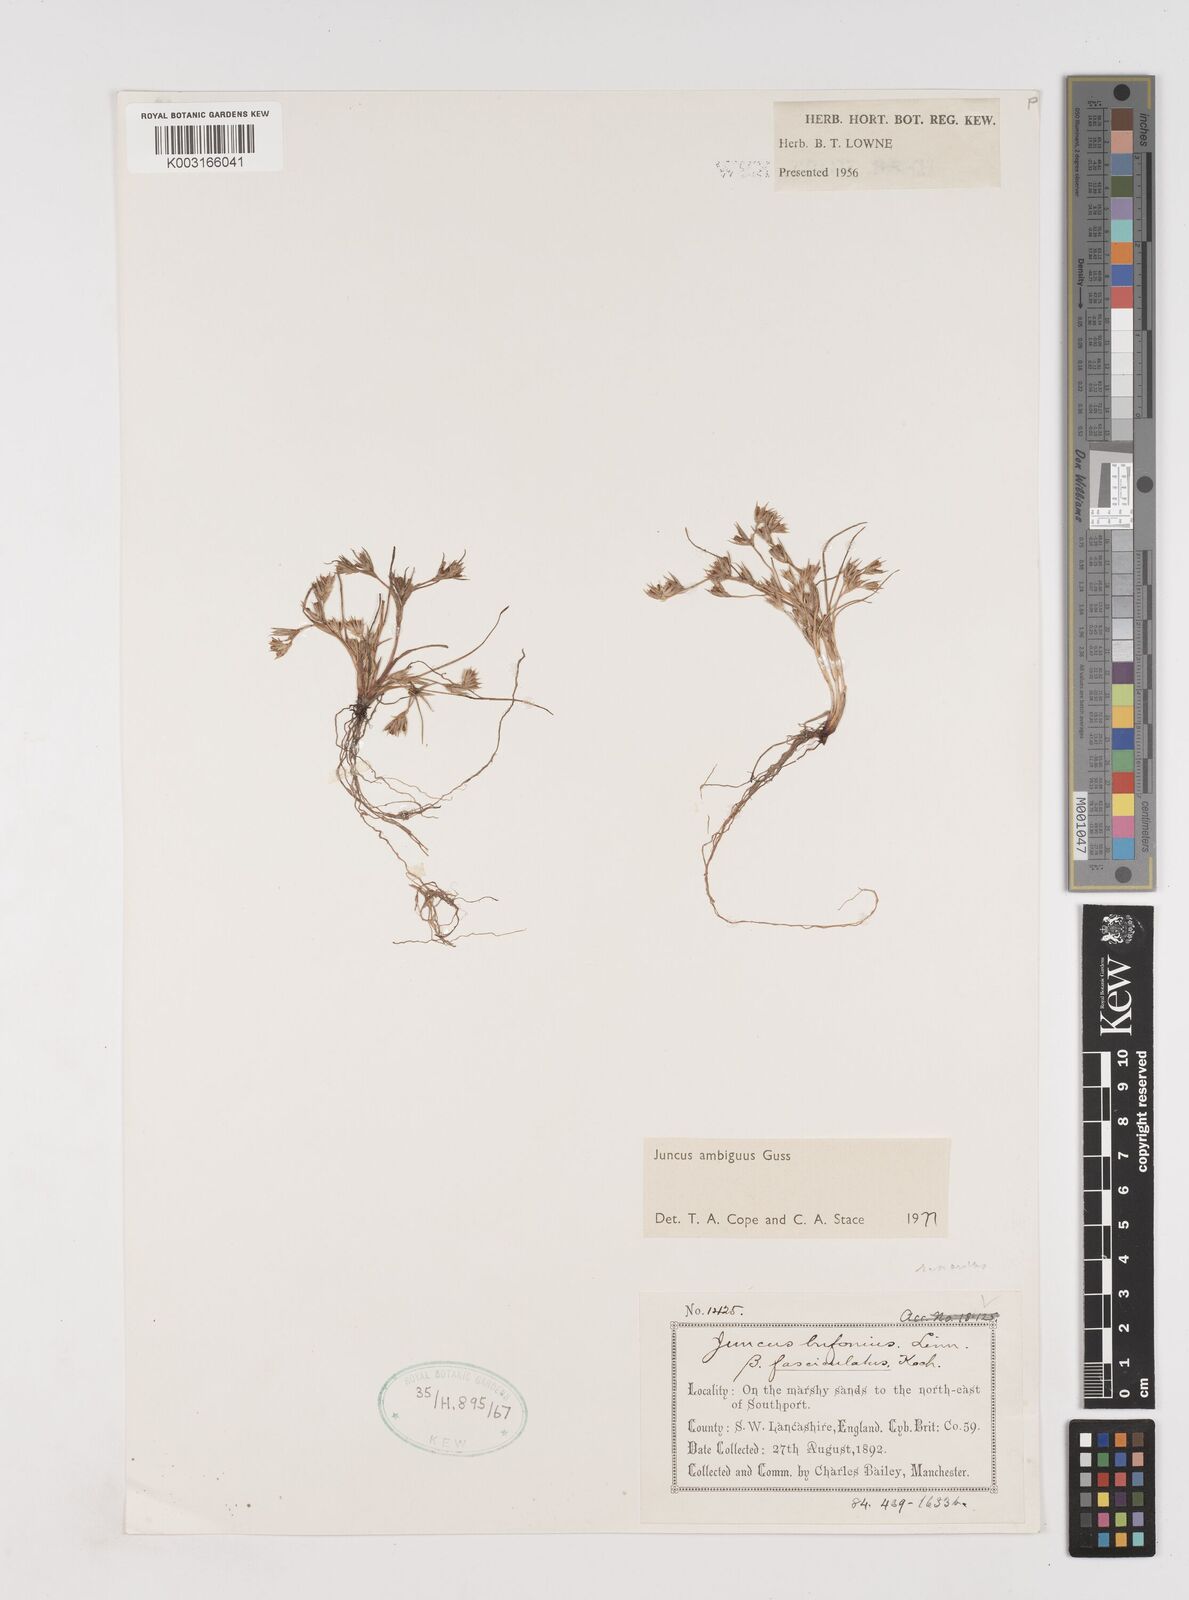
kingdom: Plantae
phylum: Tracheophyta
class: Liliopsida
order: Poales
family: Juncaceae
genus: Juncus
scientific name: Juncus hybridus
